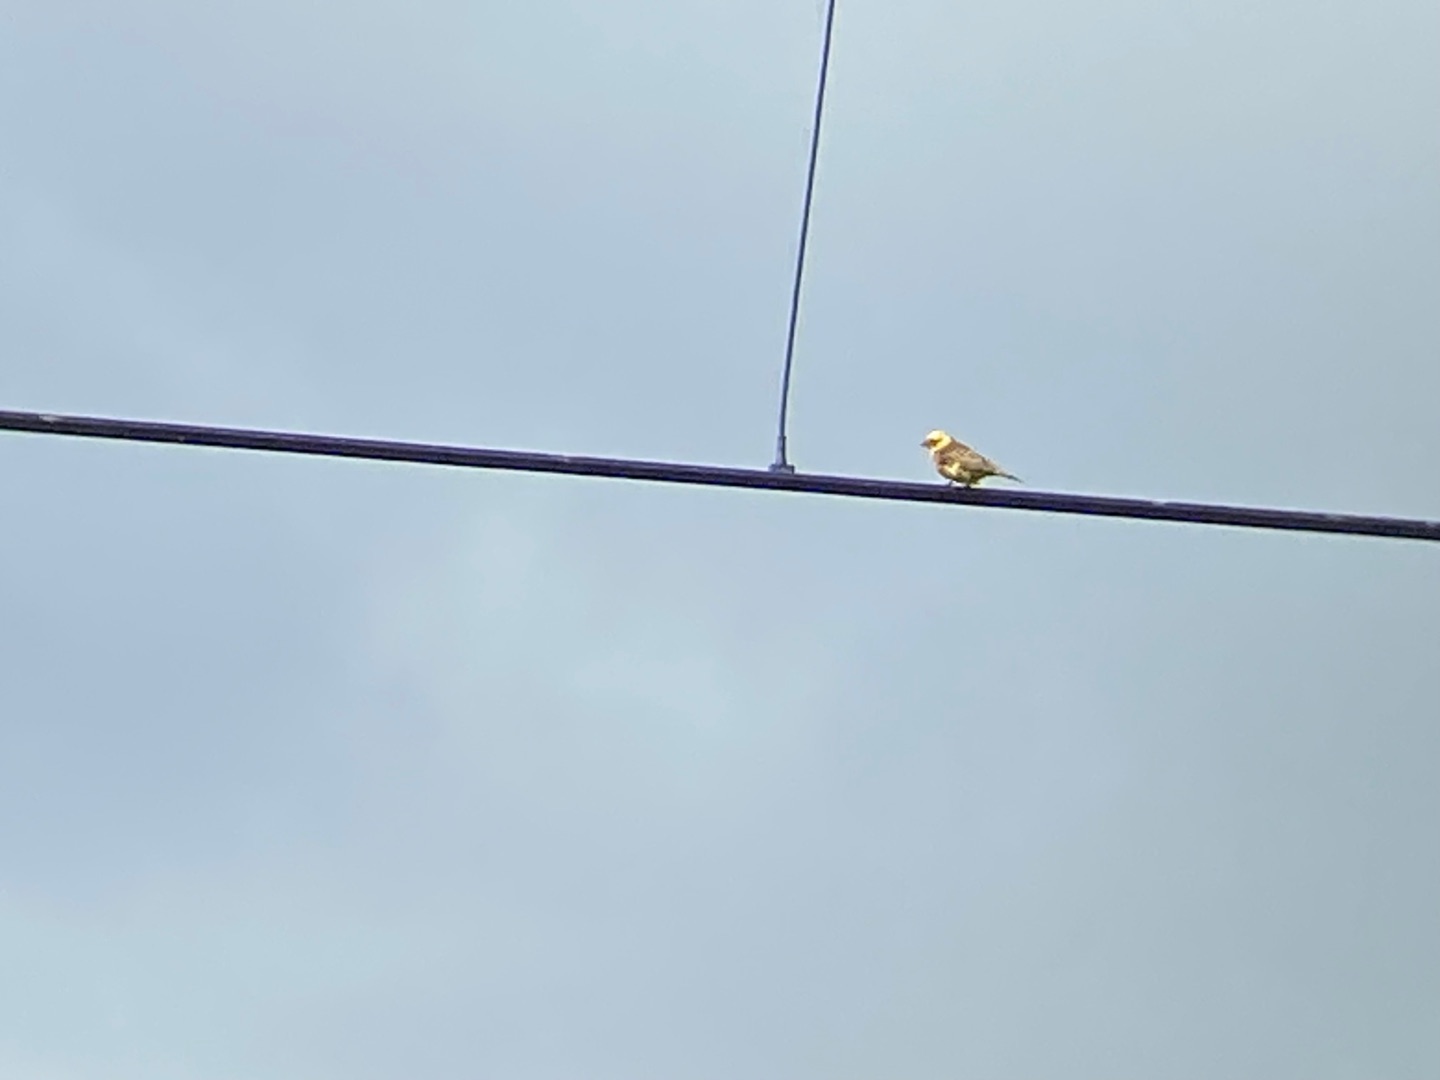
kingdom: Animalia
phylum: Chordata
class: Aves
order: Passeriformes
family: Emberizidae
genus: Emberiza
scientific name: Emberiza citrinella
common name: Gulspurv
